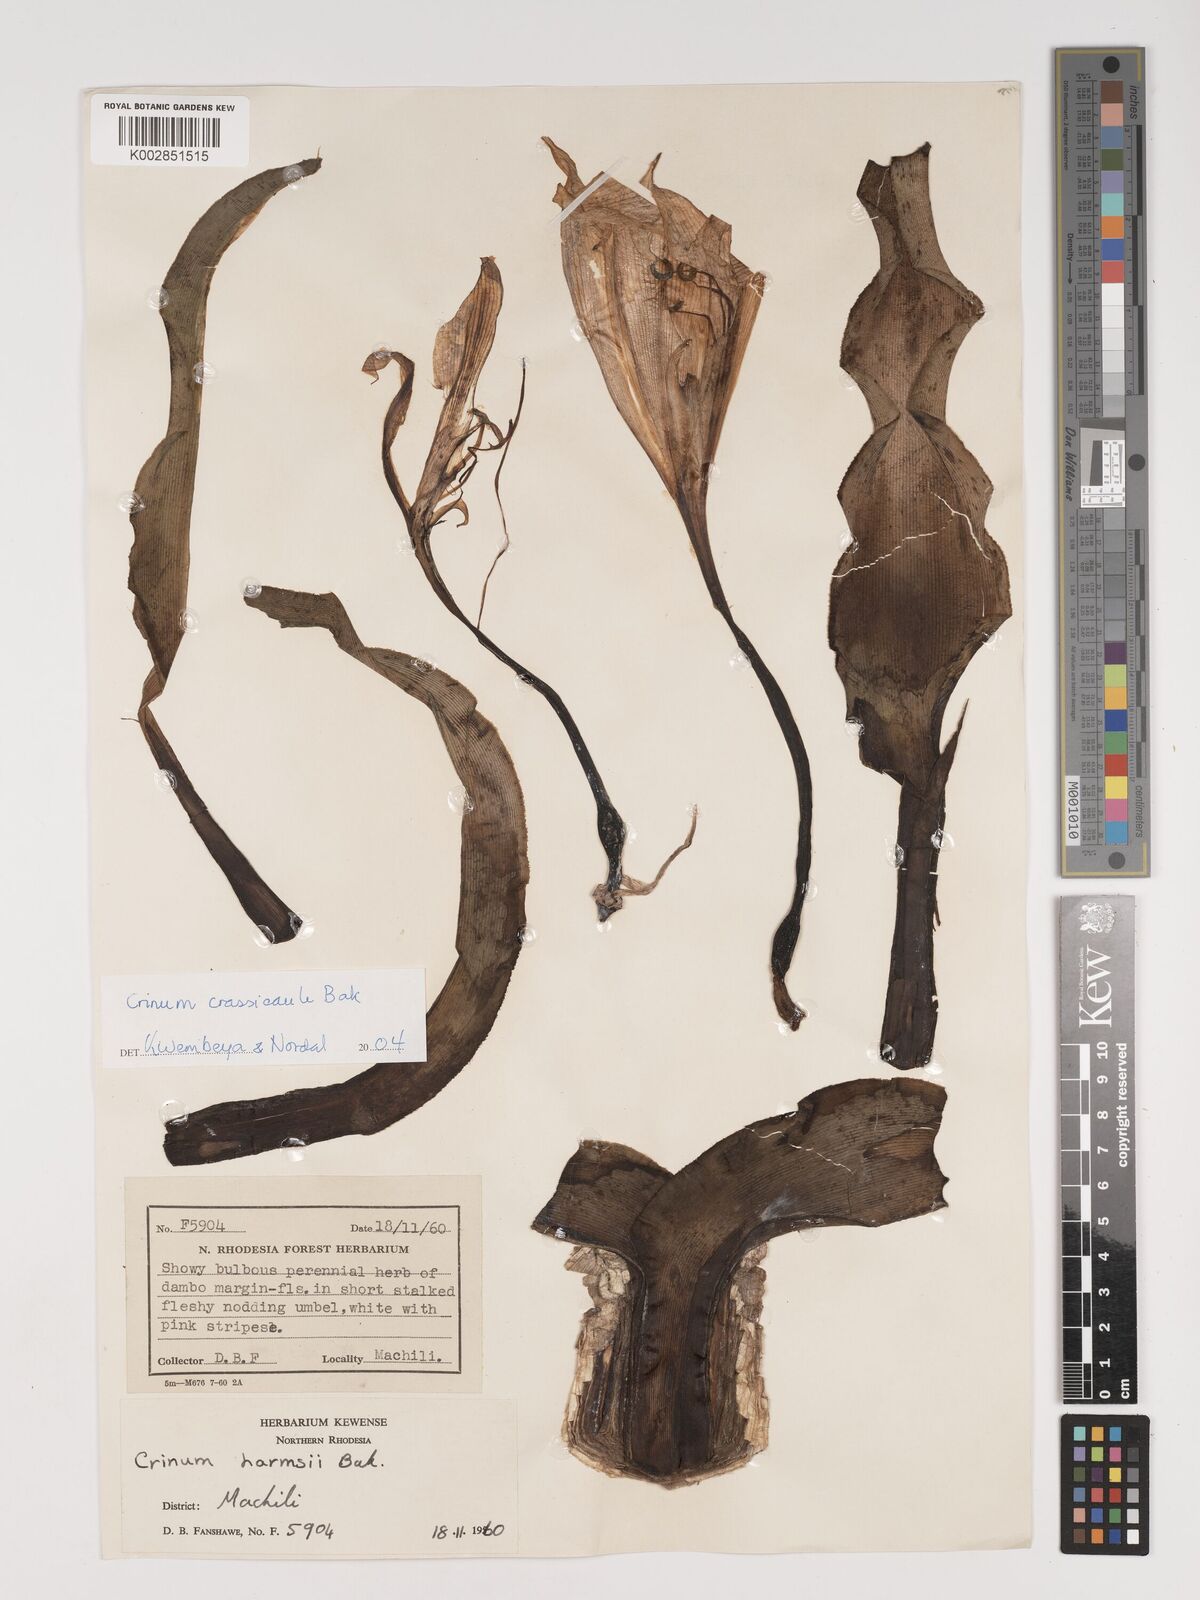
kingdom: Plantae
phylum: Tracheophyta
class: Liliopsida
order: Asparagales
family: Amaryllidaceae
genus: Crinum
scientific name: Crinum crassicaule
